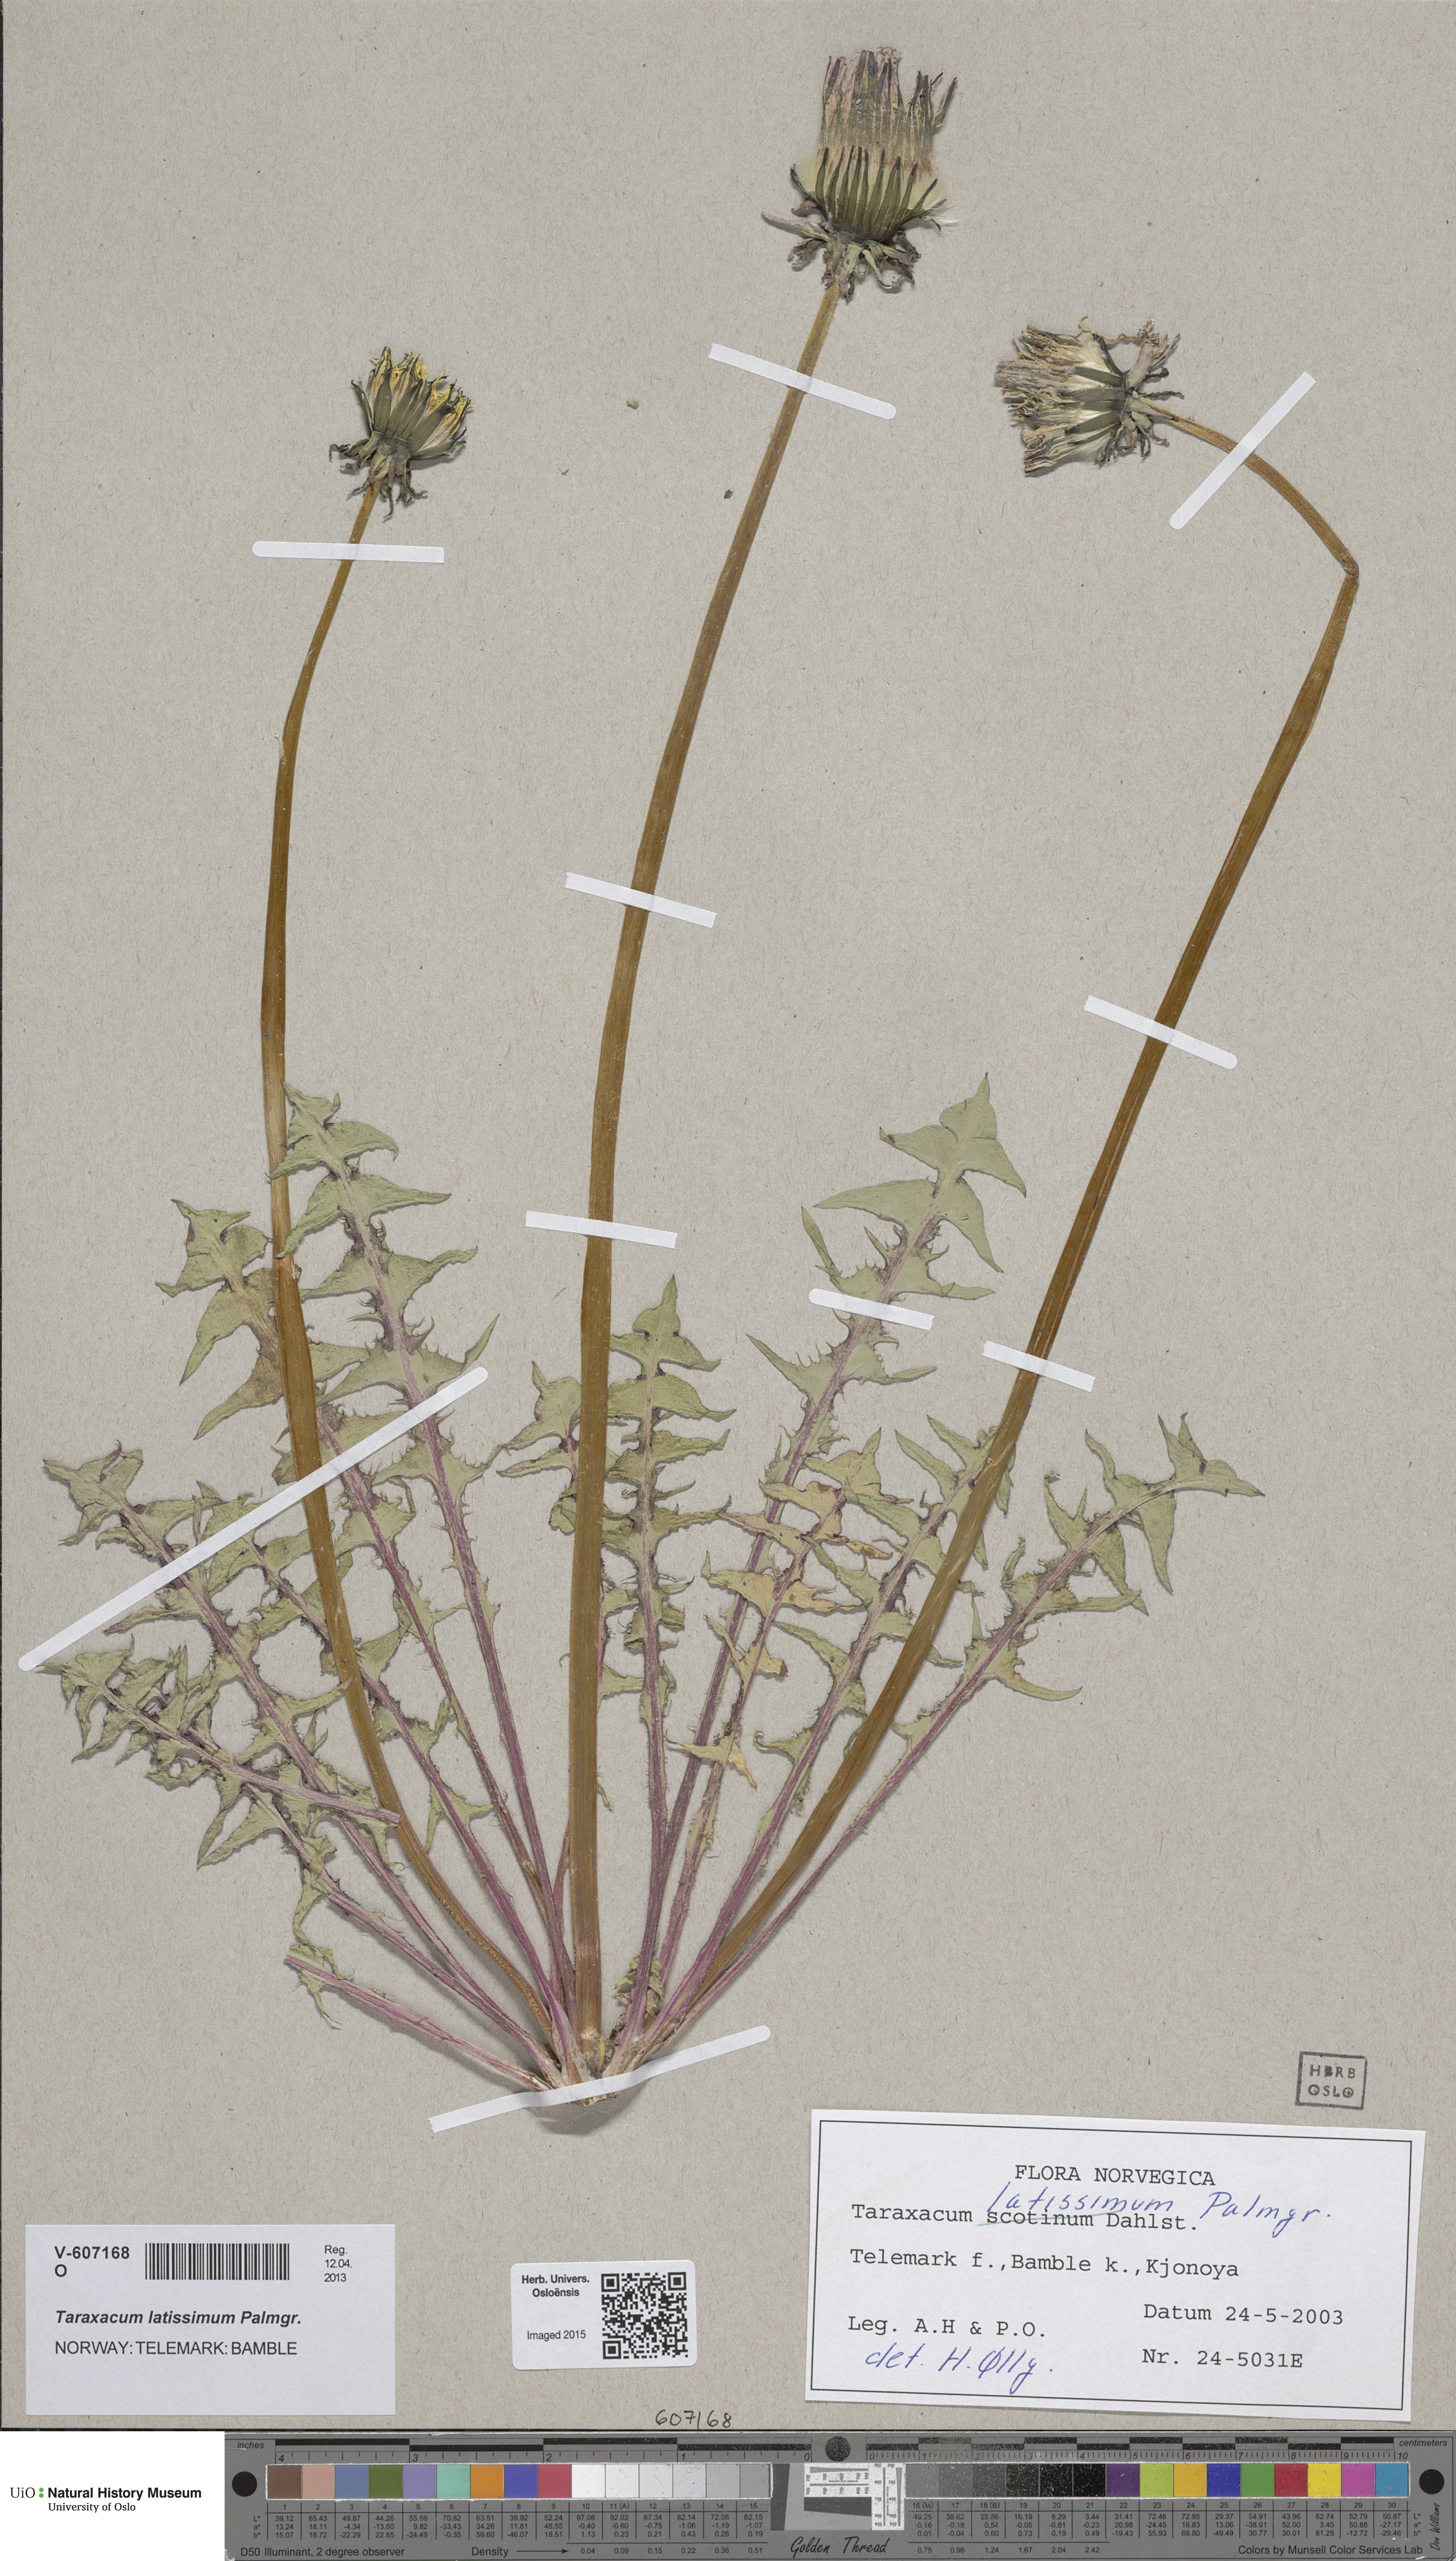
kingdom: Plantae
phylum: Tracheophyta
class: Magnoliopsida
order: Asterales
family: Asteraceae
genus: Taraxacum
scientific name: Taraxacum latissimum
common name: Broad-leaved dandelion
